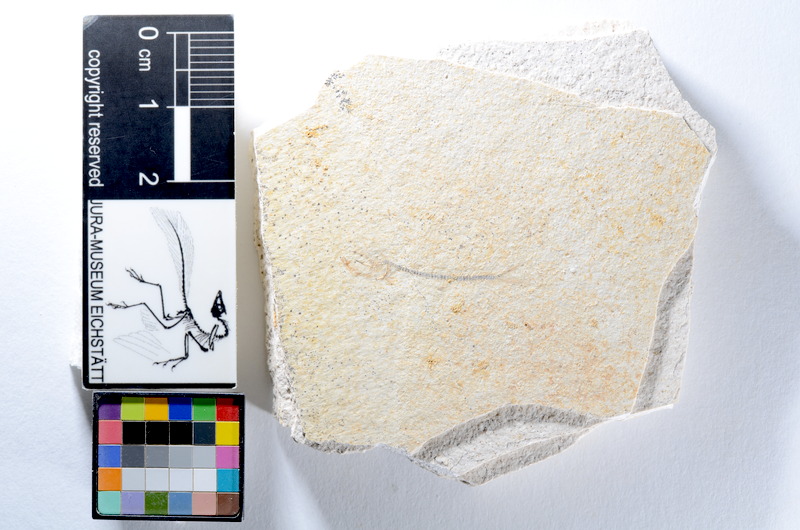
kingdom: Animalia
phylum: Chordata
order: Salmoniformes
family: Orthogonikleithridae
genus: Orthogonikleithrus
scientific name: Orthogonikleithrus hoelli
